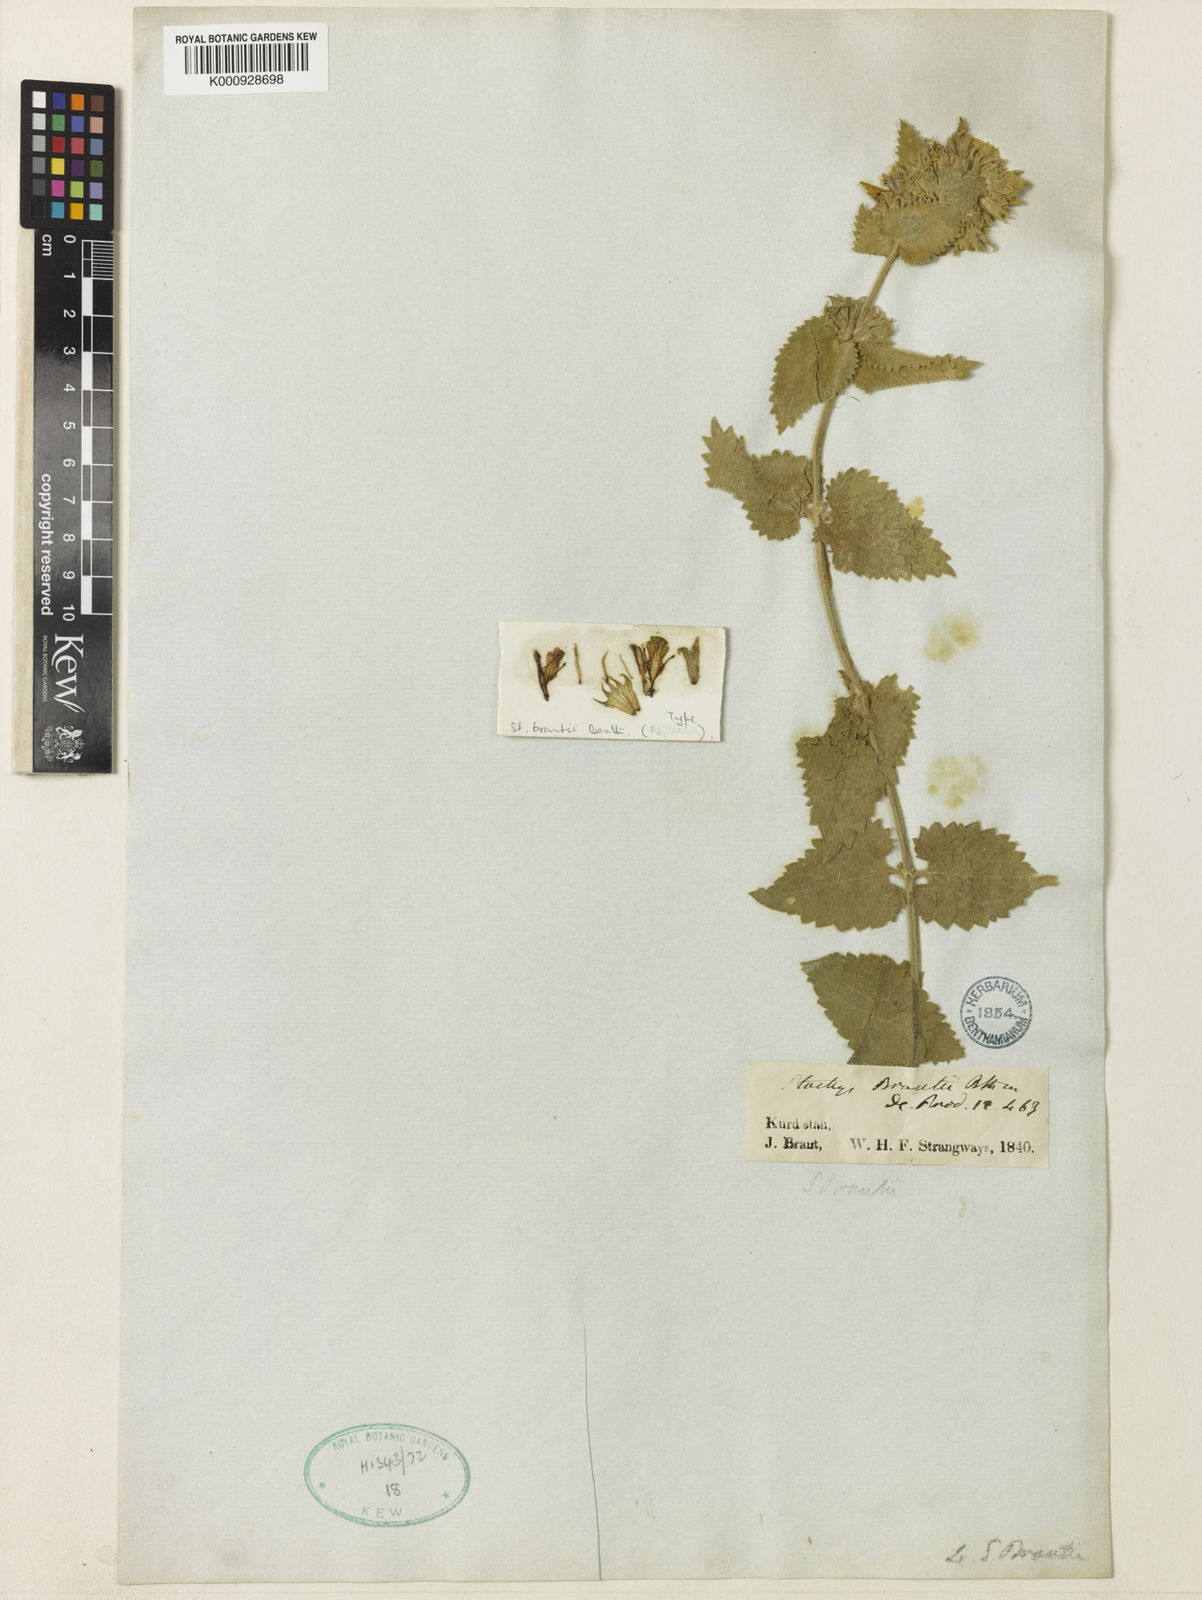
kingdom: Plantae
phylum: Tracheophyta
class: Magnoliopsida
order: Lamiales
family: Lamiaceae
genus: Betonica
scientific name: Betonica brantii
